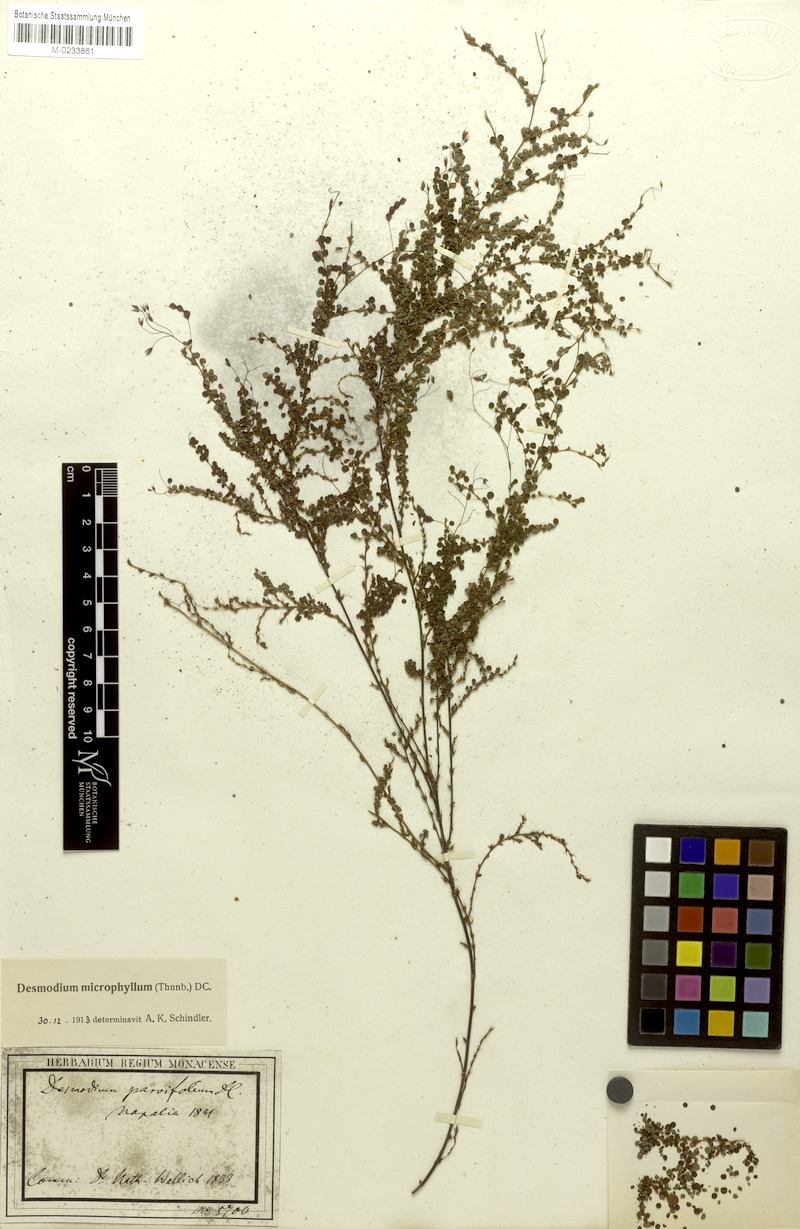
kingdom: Plantae
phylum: Tracheophyta
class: Magnoliopsida
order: Fabales
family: Fabaceae
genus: Leptodesmia
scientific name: Leptodesmia microphylla
